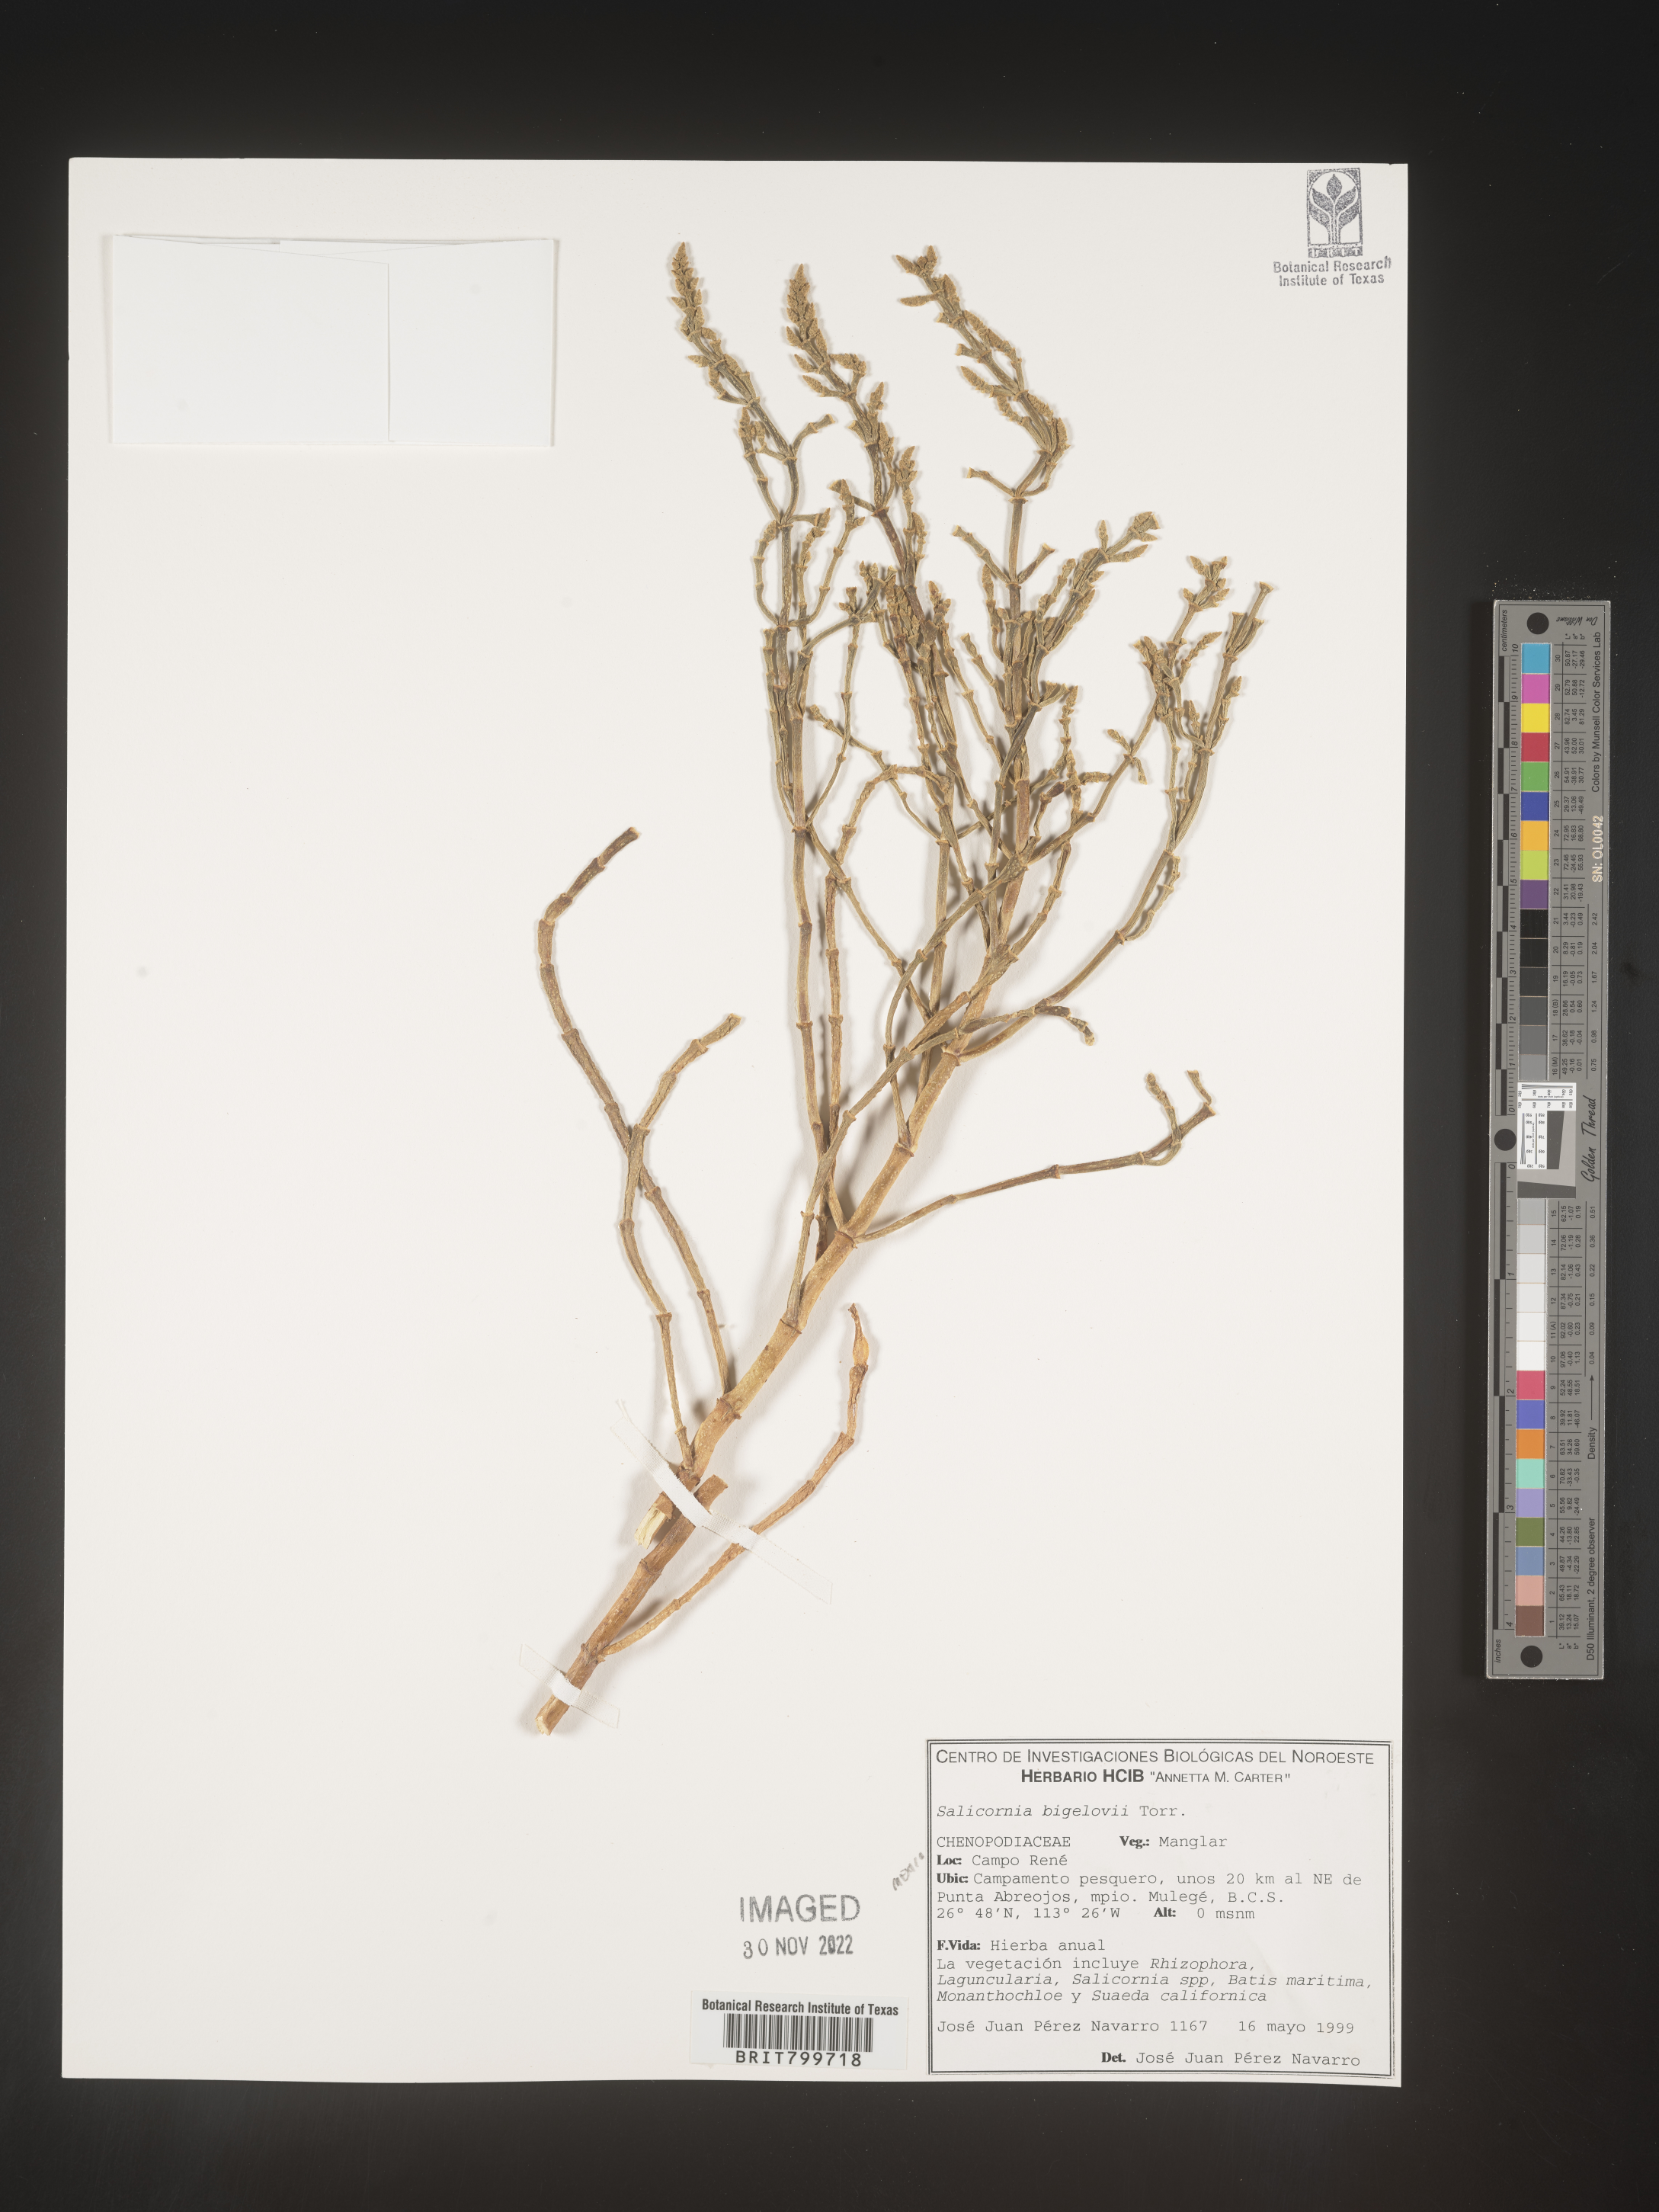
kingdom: Plantae
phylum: Tracheophyta
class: Magnoliopsida
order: Caryophyllales
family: Amaranthaceae
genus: Salicornia
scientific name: Salicornia
